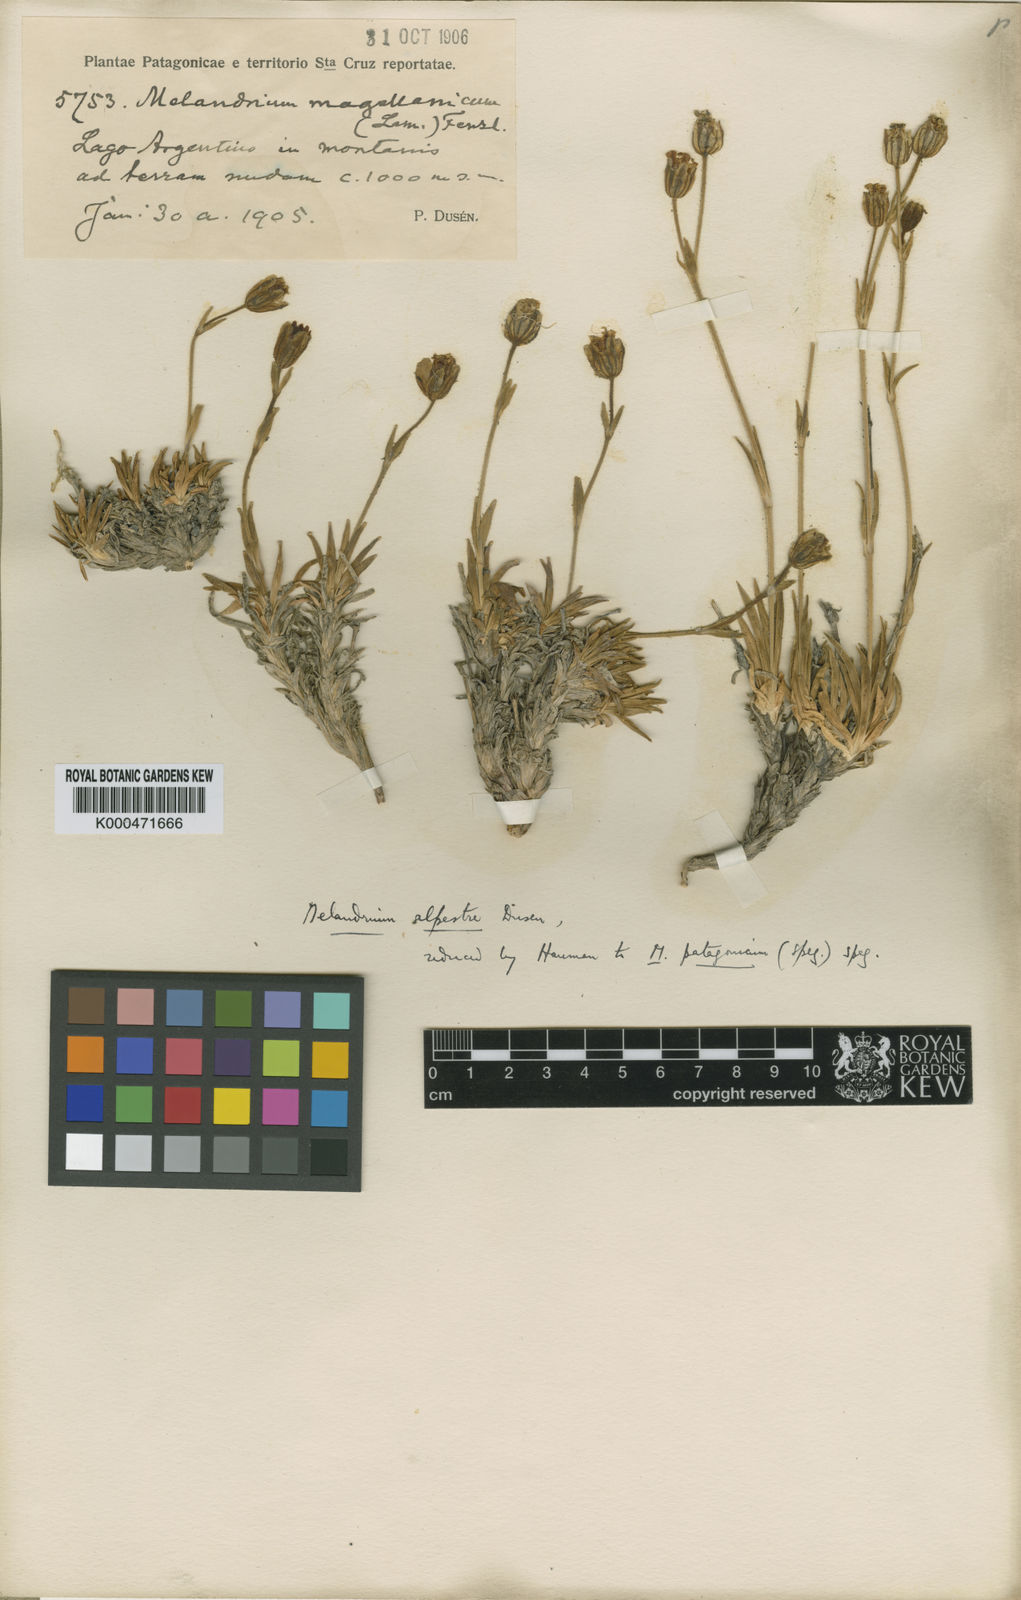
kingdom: Plantae
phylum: Tracheophyta
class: Magnoliopsida
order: Caryophyllales
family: Caryophyllaceae
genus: Silene
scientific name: Silene patagonica
